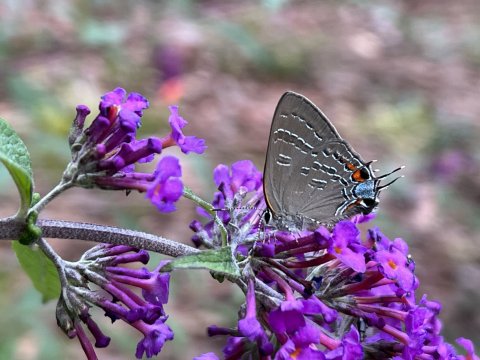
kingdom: Animalia
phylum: Arthropoda
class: Insecta
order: Lepidoptera
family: Lycaenidae
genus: Satyrium
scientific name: Satyrium calanus
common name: Banded Hairstreak
